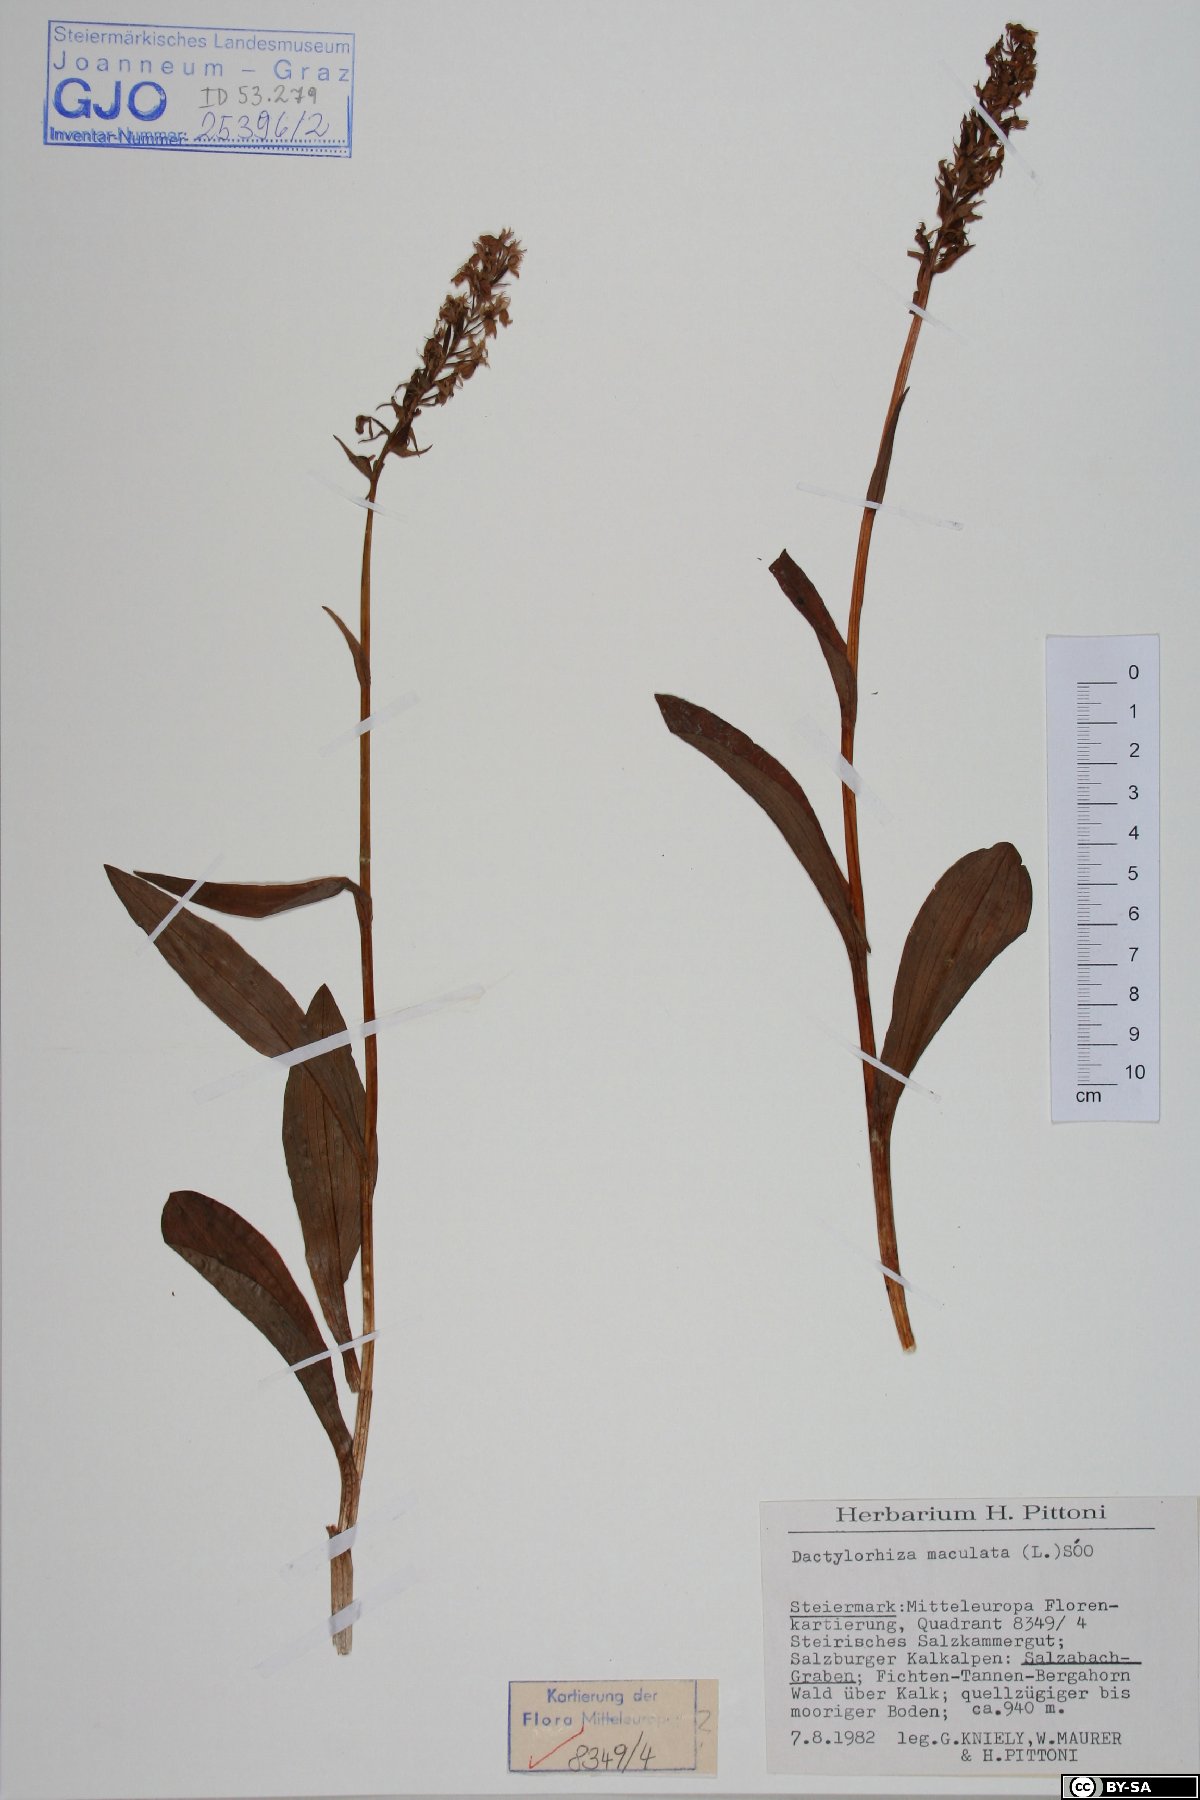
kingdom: Plantae
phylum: Tracheophyta
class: Liliopsida
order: Asparagales
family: Orchidaceae
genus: Dactylorhiza
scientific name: Dactylorhiza maculata
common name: Heath spotted-orchid
